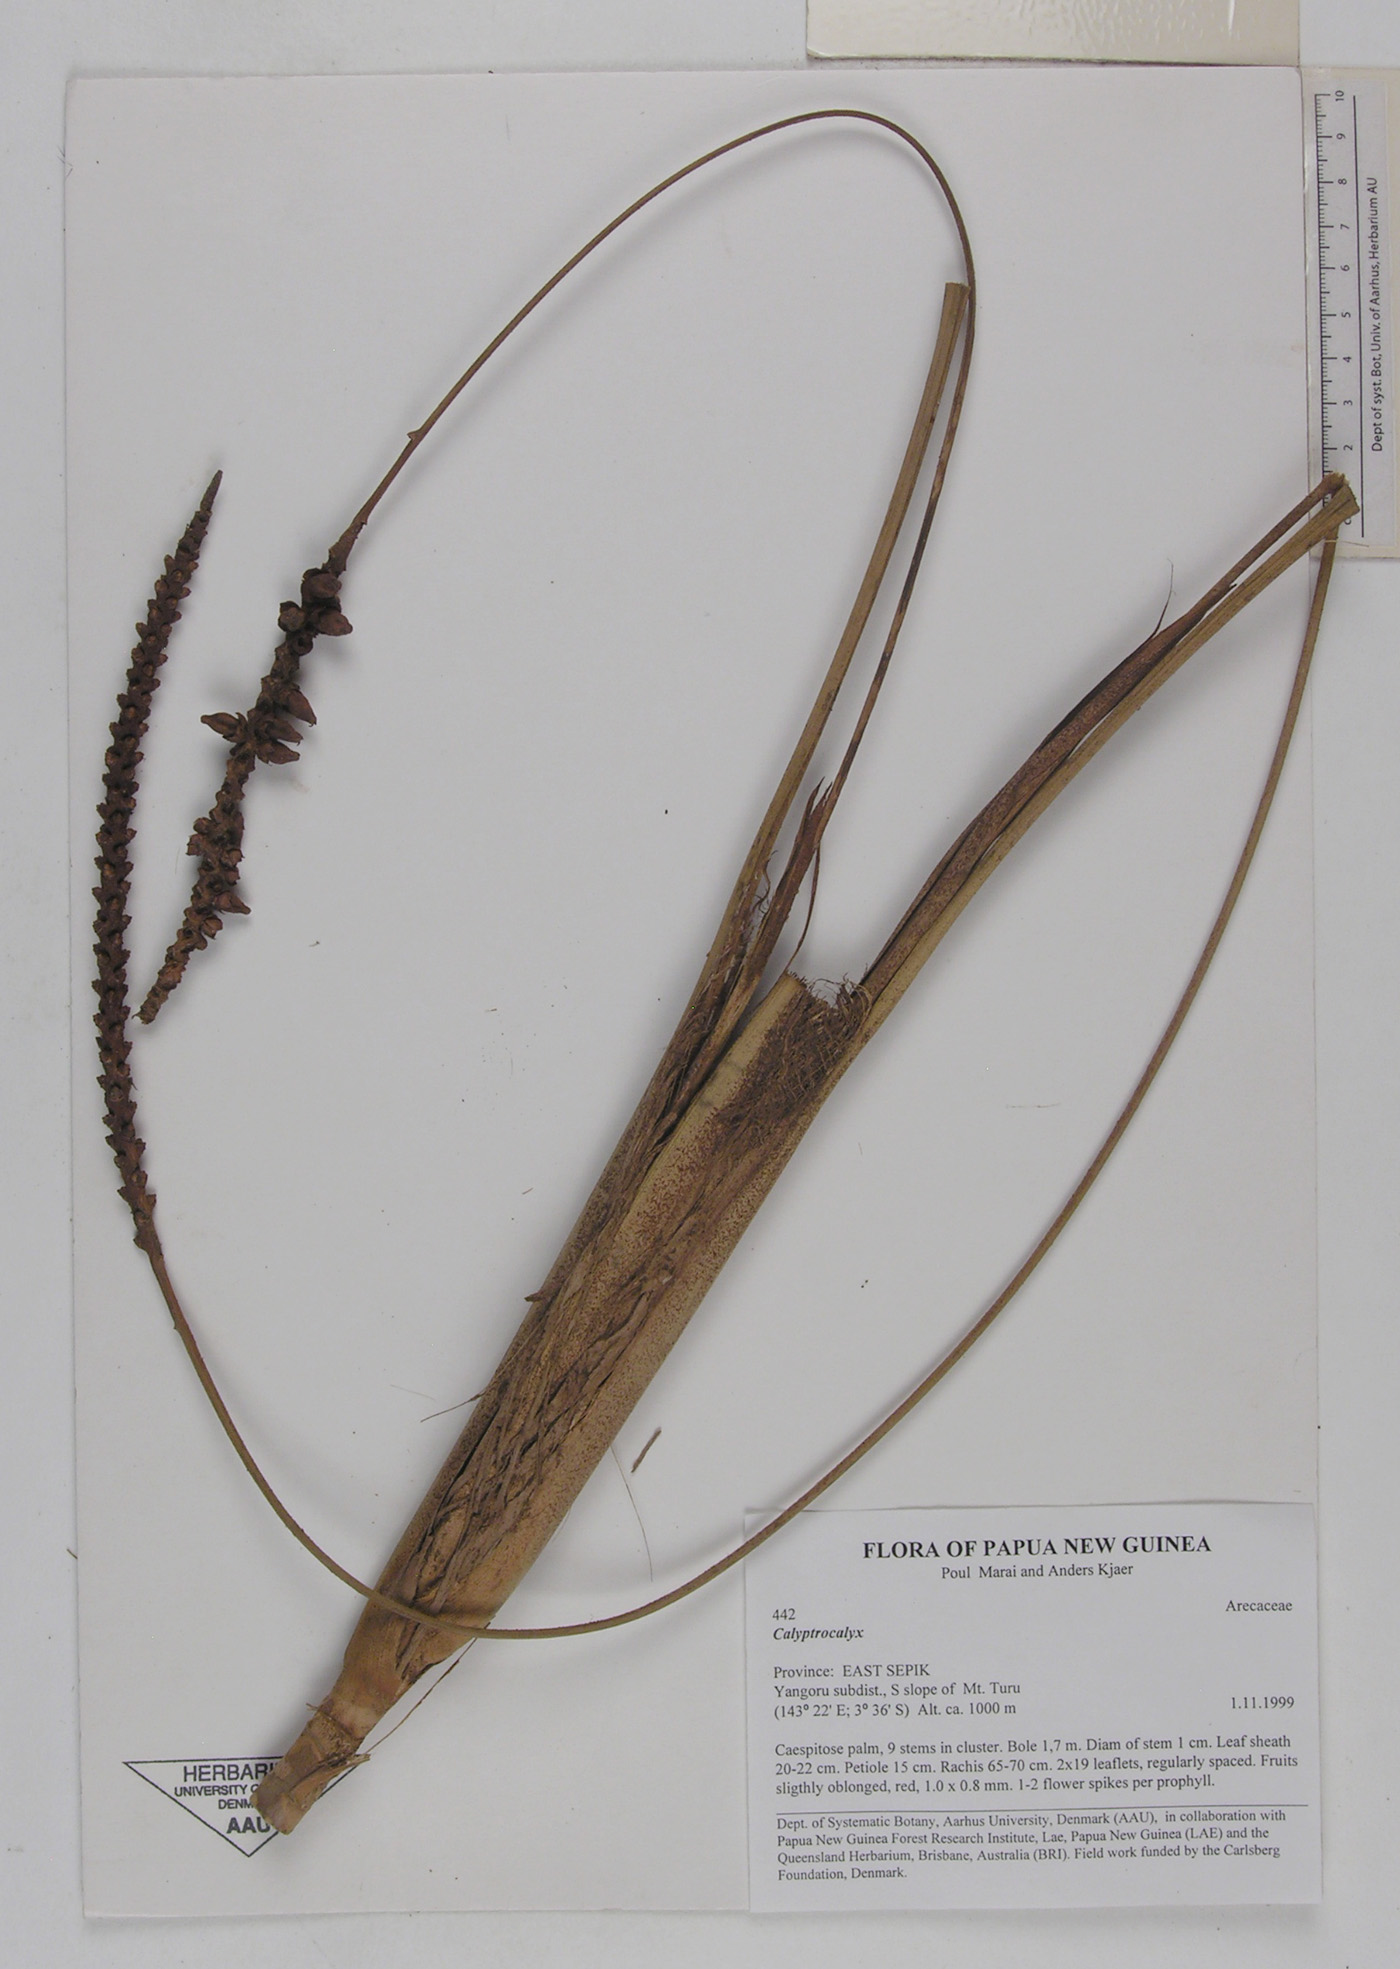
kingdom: Plantae
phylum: Tracheophyta
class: Liliopsida
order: Arecales
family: Arecaceae
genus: Calyptrocalyx
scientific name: Calyptrocalyx
